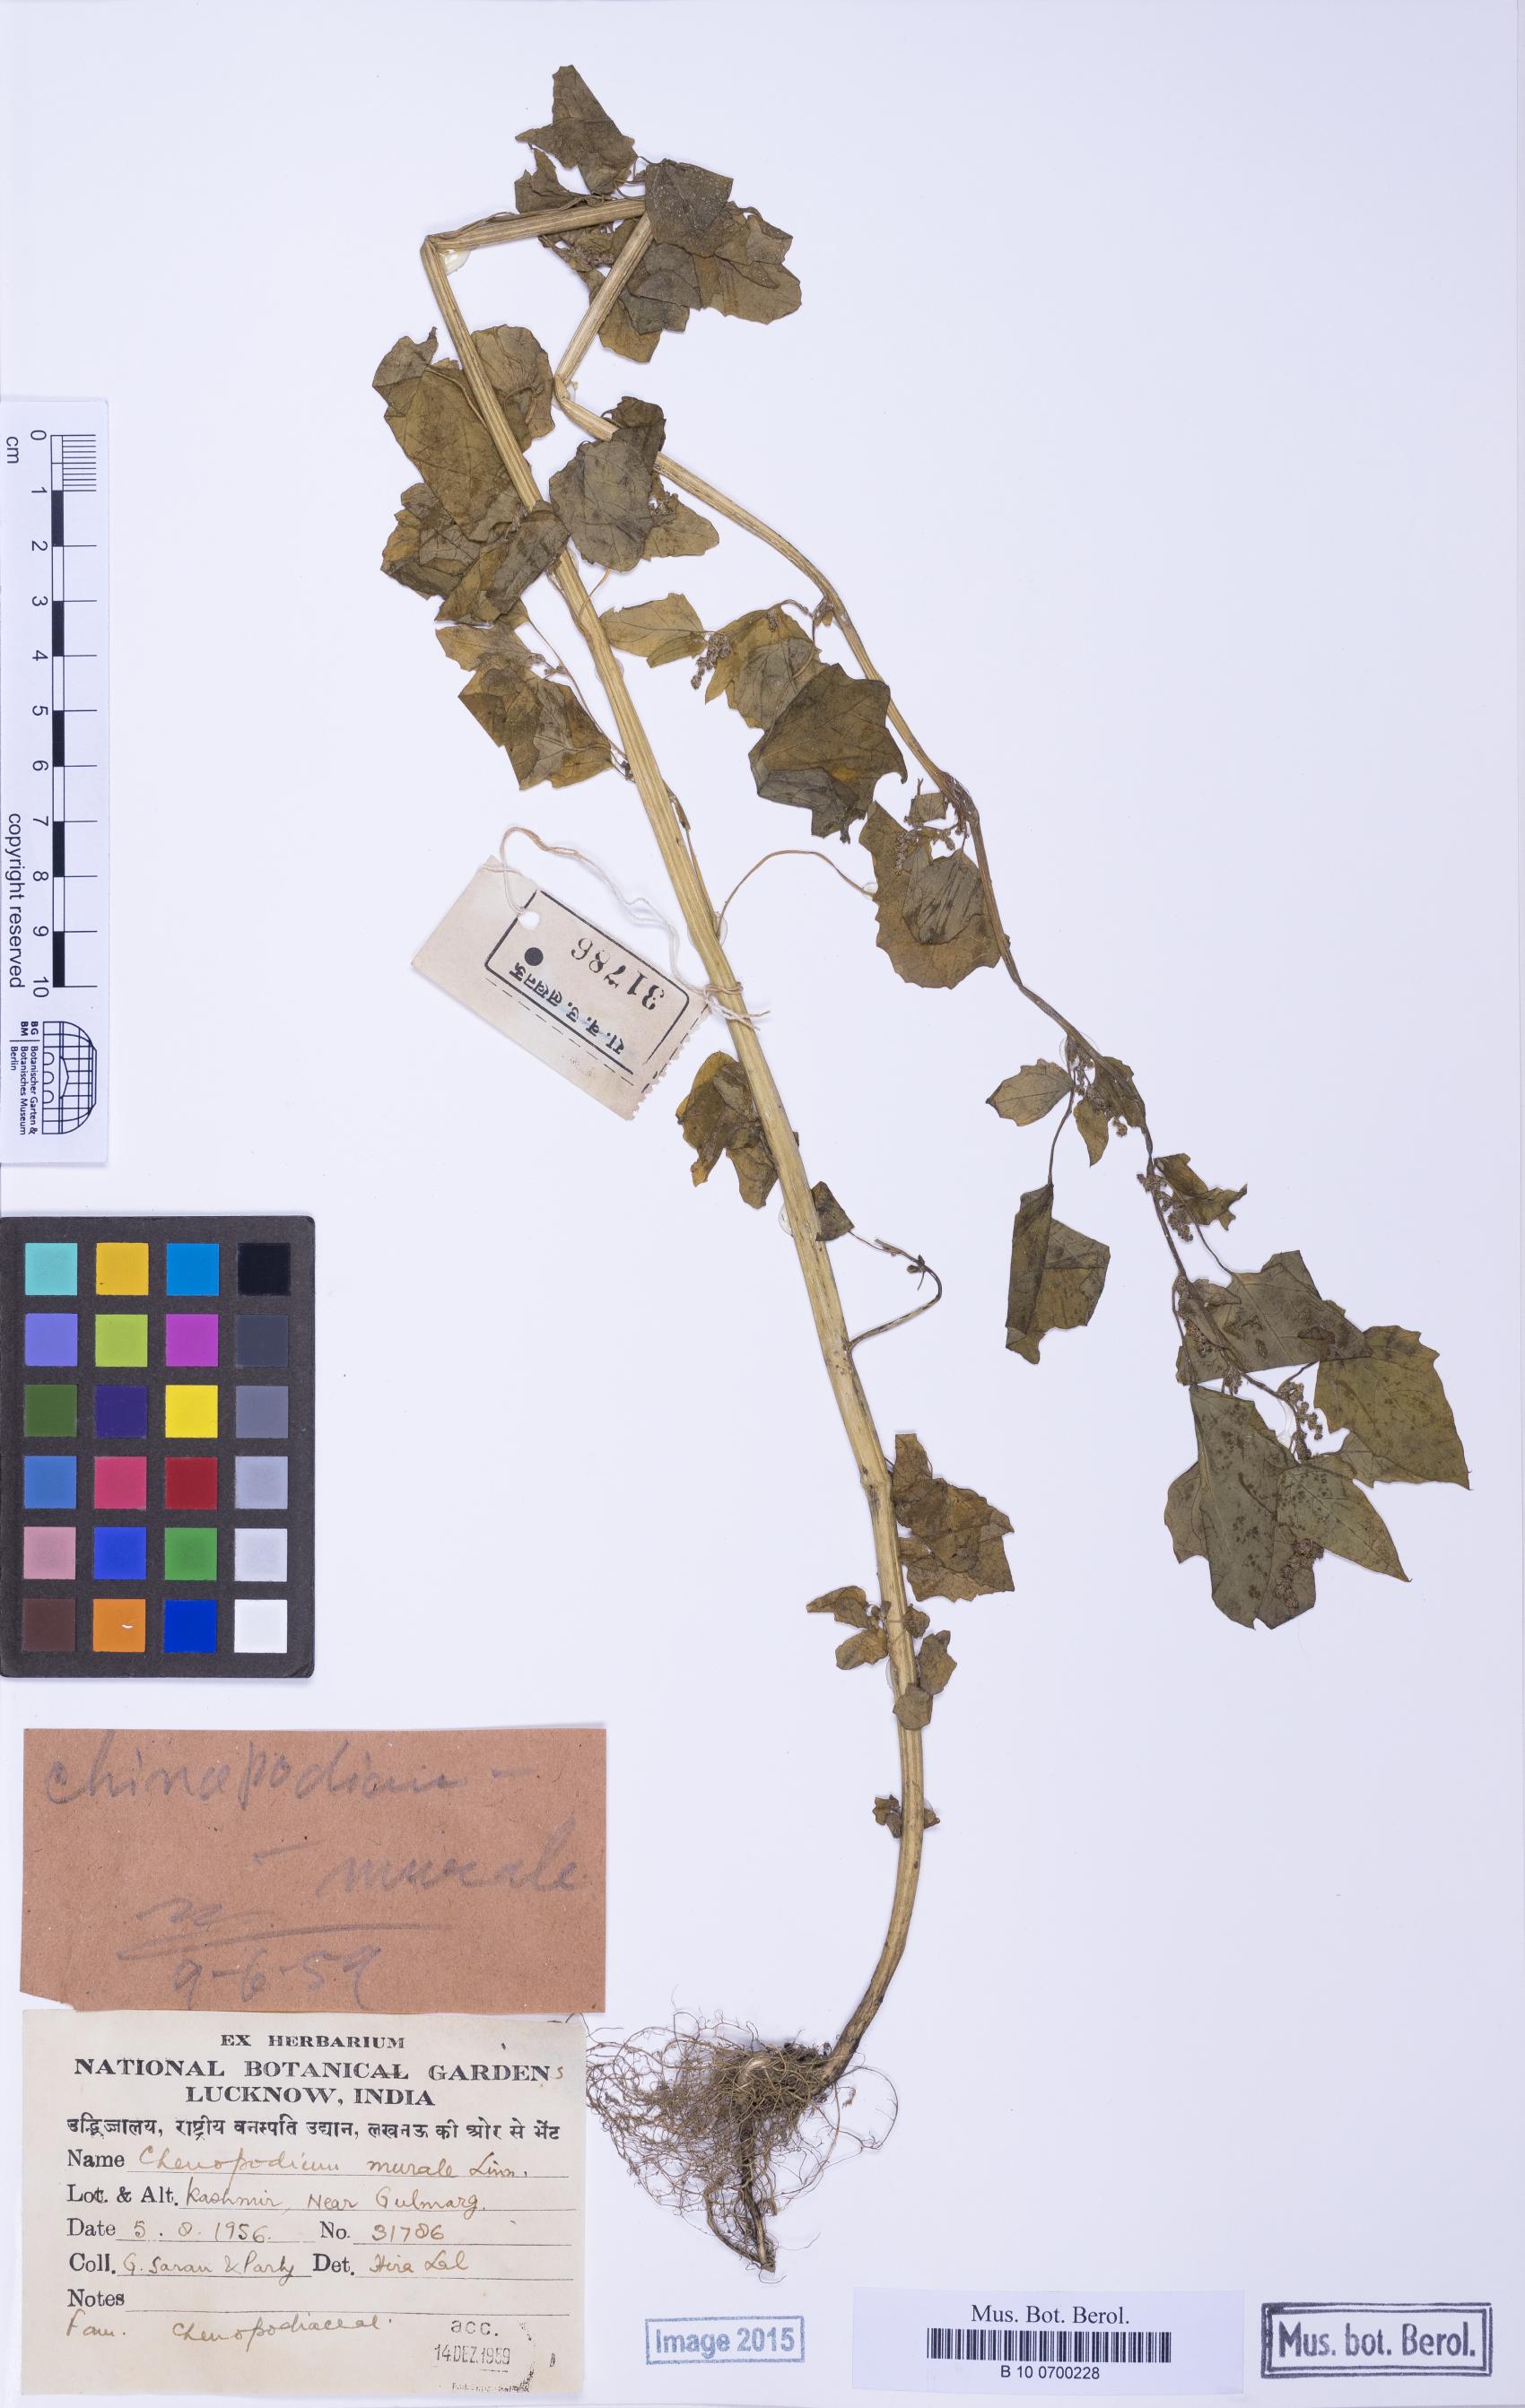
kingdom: Plantae
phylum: Tracheophyta
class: Magnoliopsida
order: Caryophyllales
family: Amaranthaceae
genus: Chenopodium
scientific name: Chenopodium bryoniifolium
